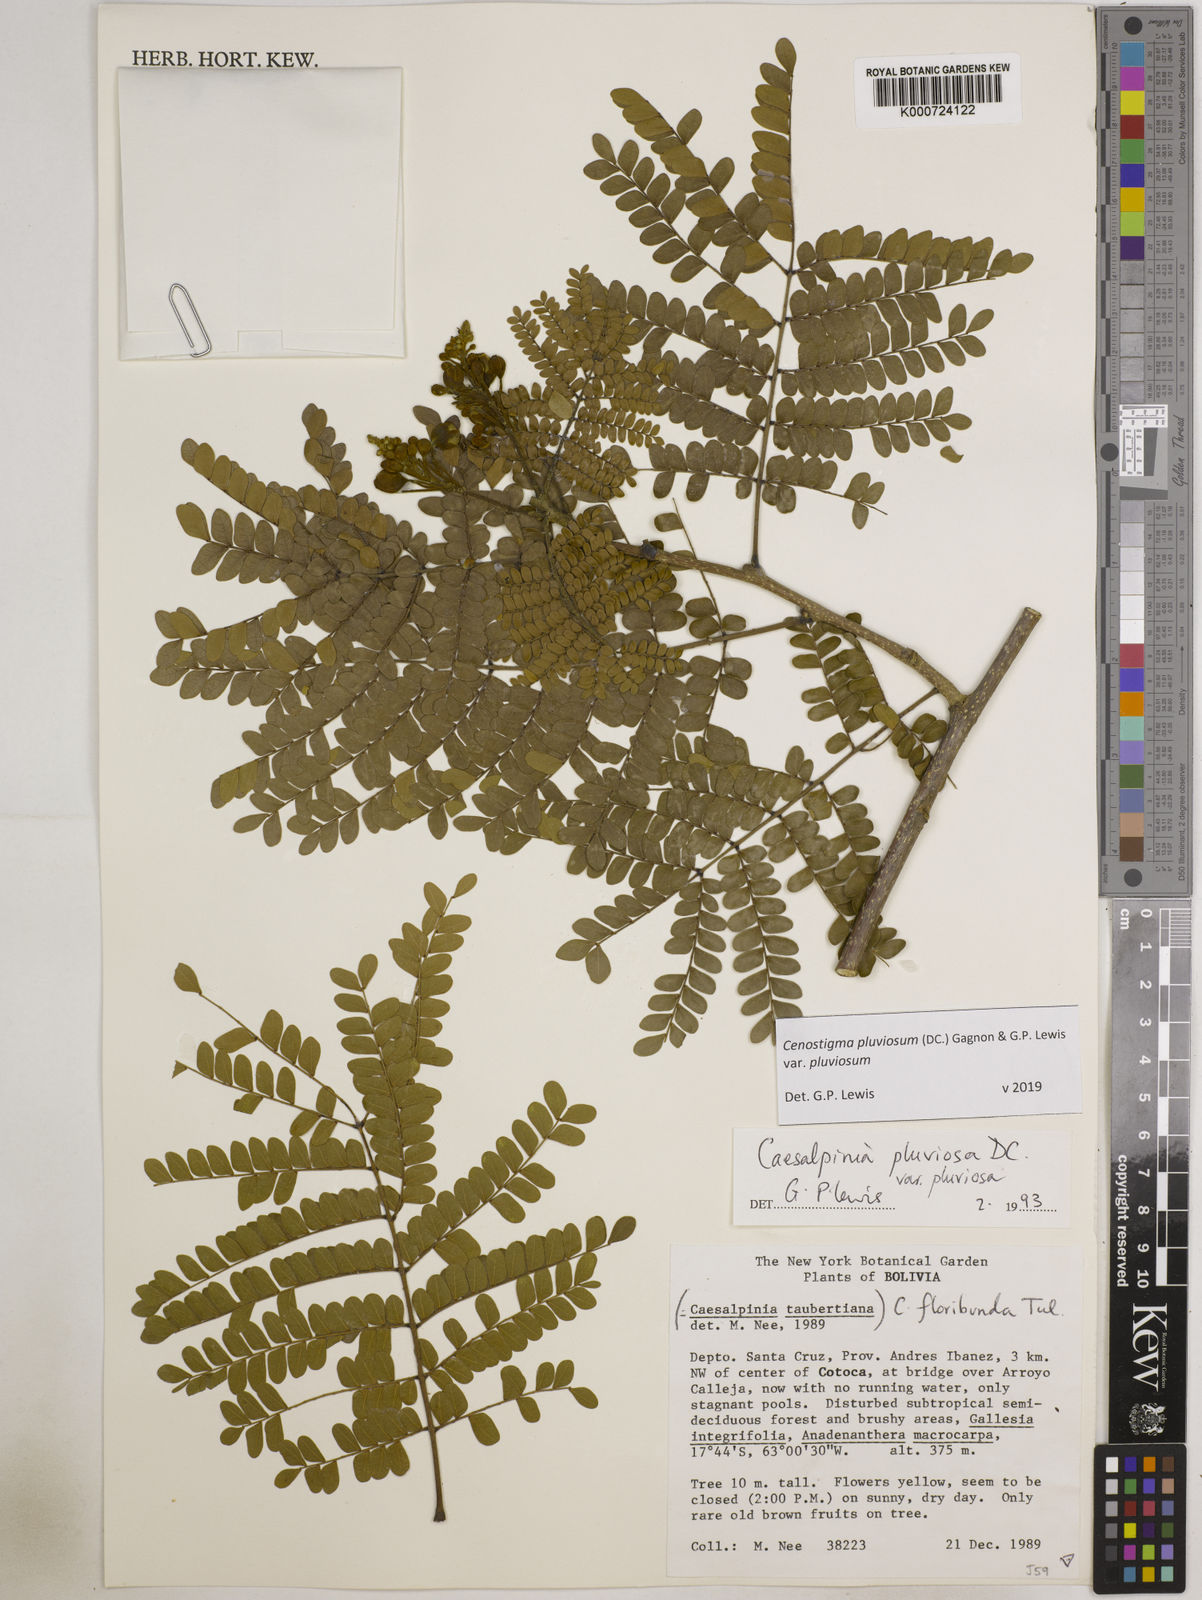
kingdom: Plantae
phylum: Tracheophyta
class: Magnoliopsida
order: Fabales
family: Fabaceae
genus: Cenostigma
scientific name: Cenostigma pluviosum
